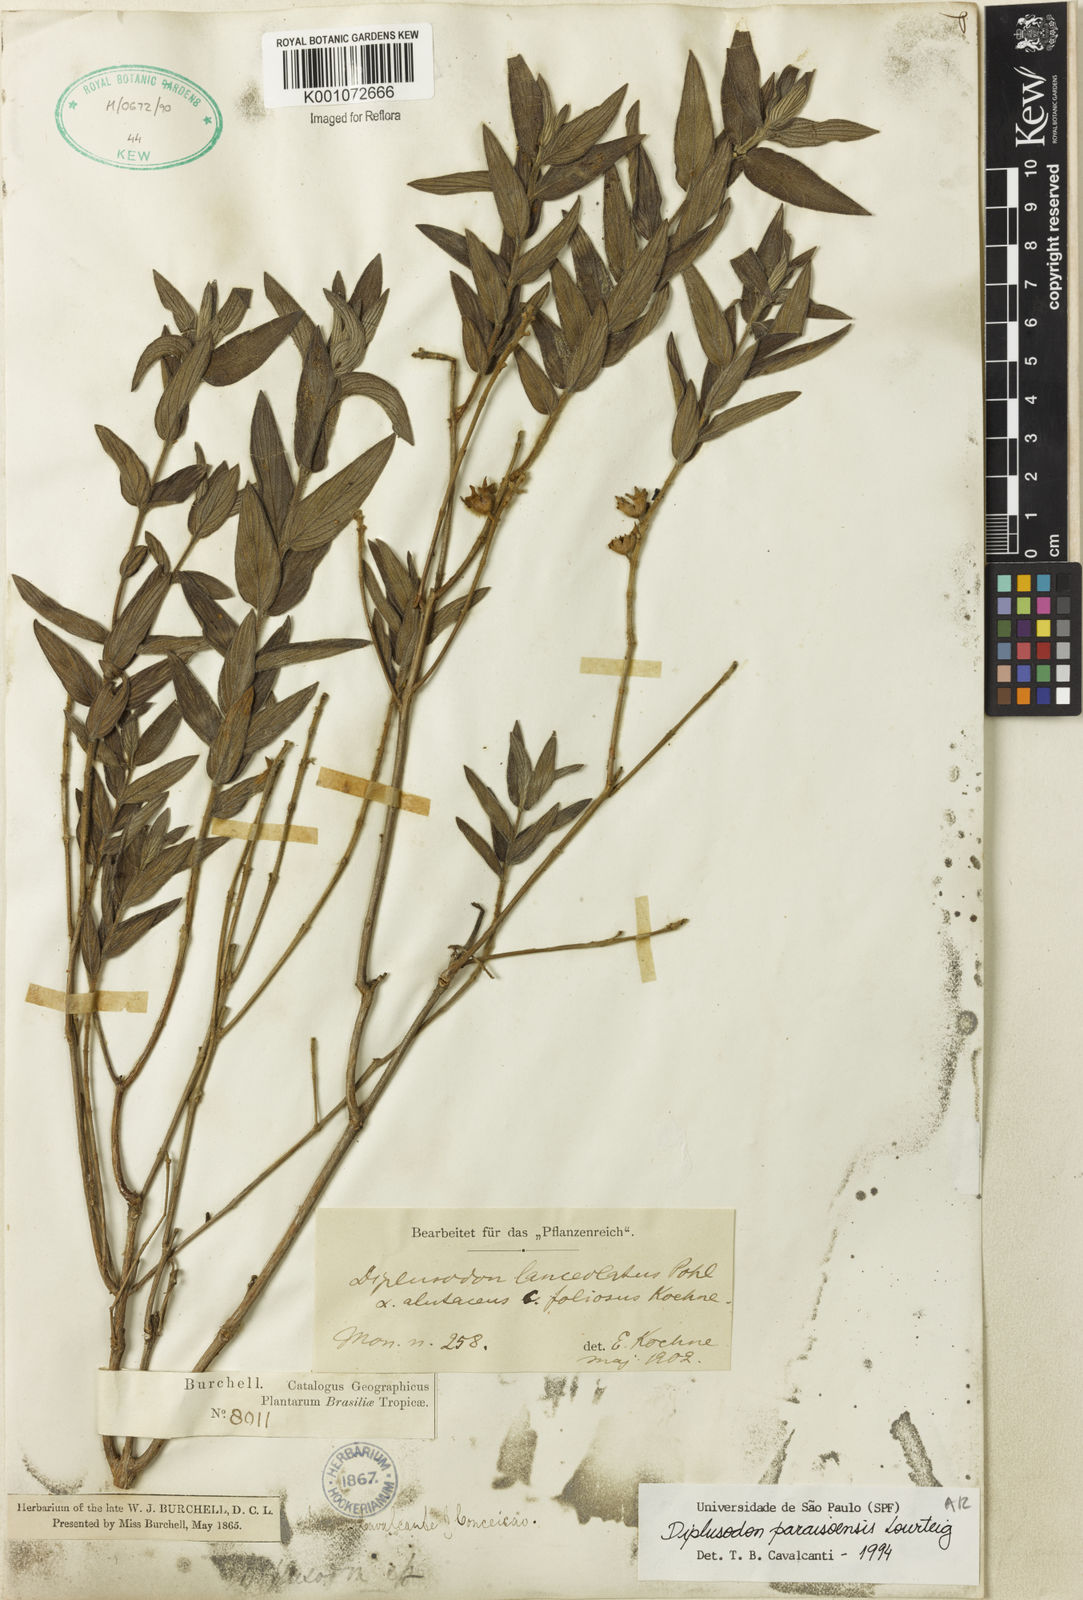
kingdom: Plantae
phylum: Tracheophyta
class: Magnoliopsida
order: Myrtales
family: Lythraceae
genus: Diplusodon
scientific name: Diplusodon paraisoensis
